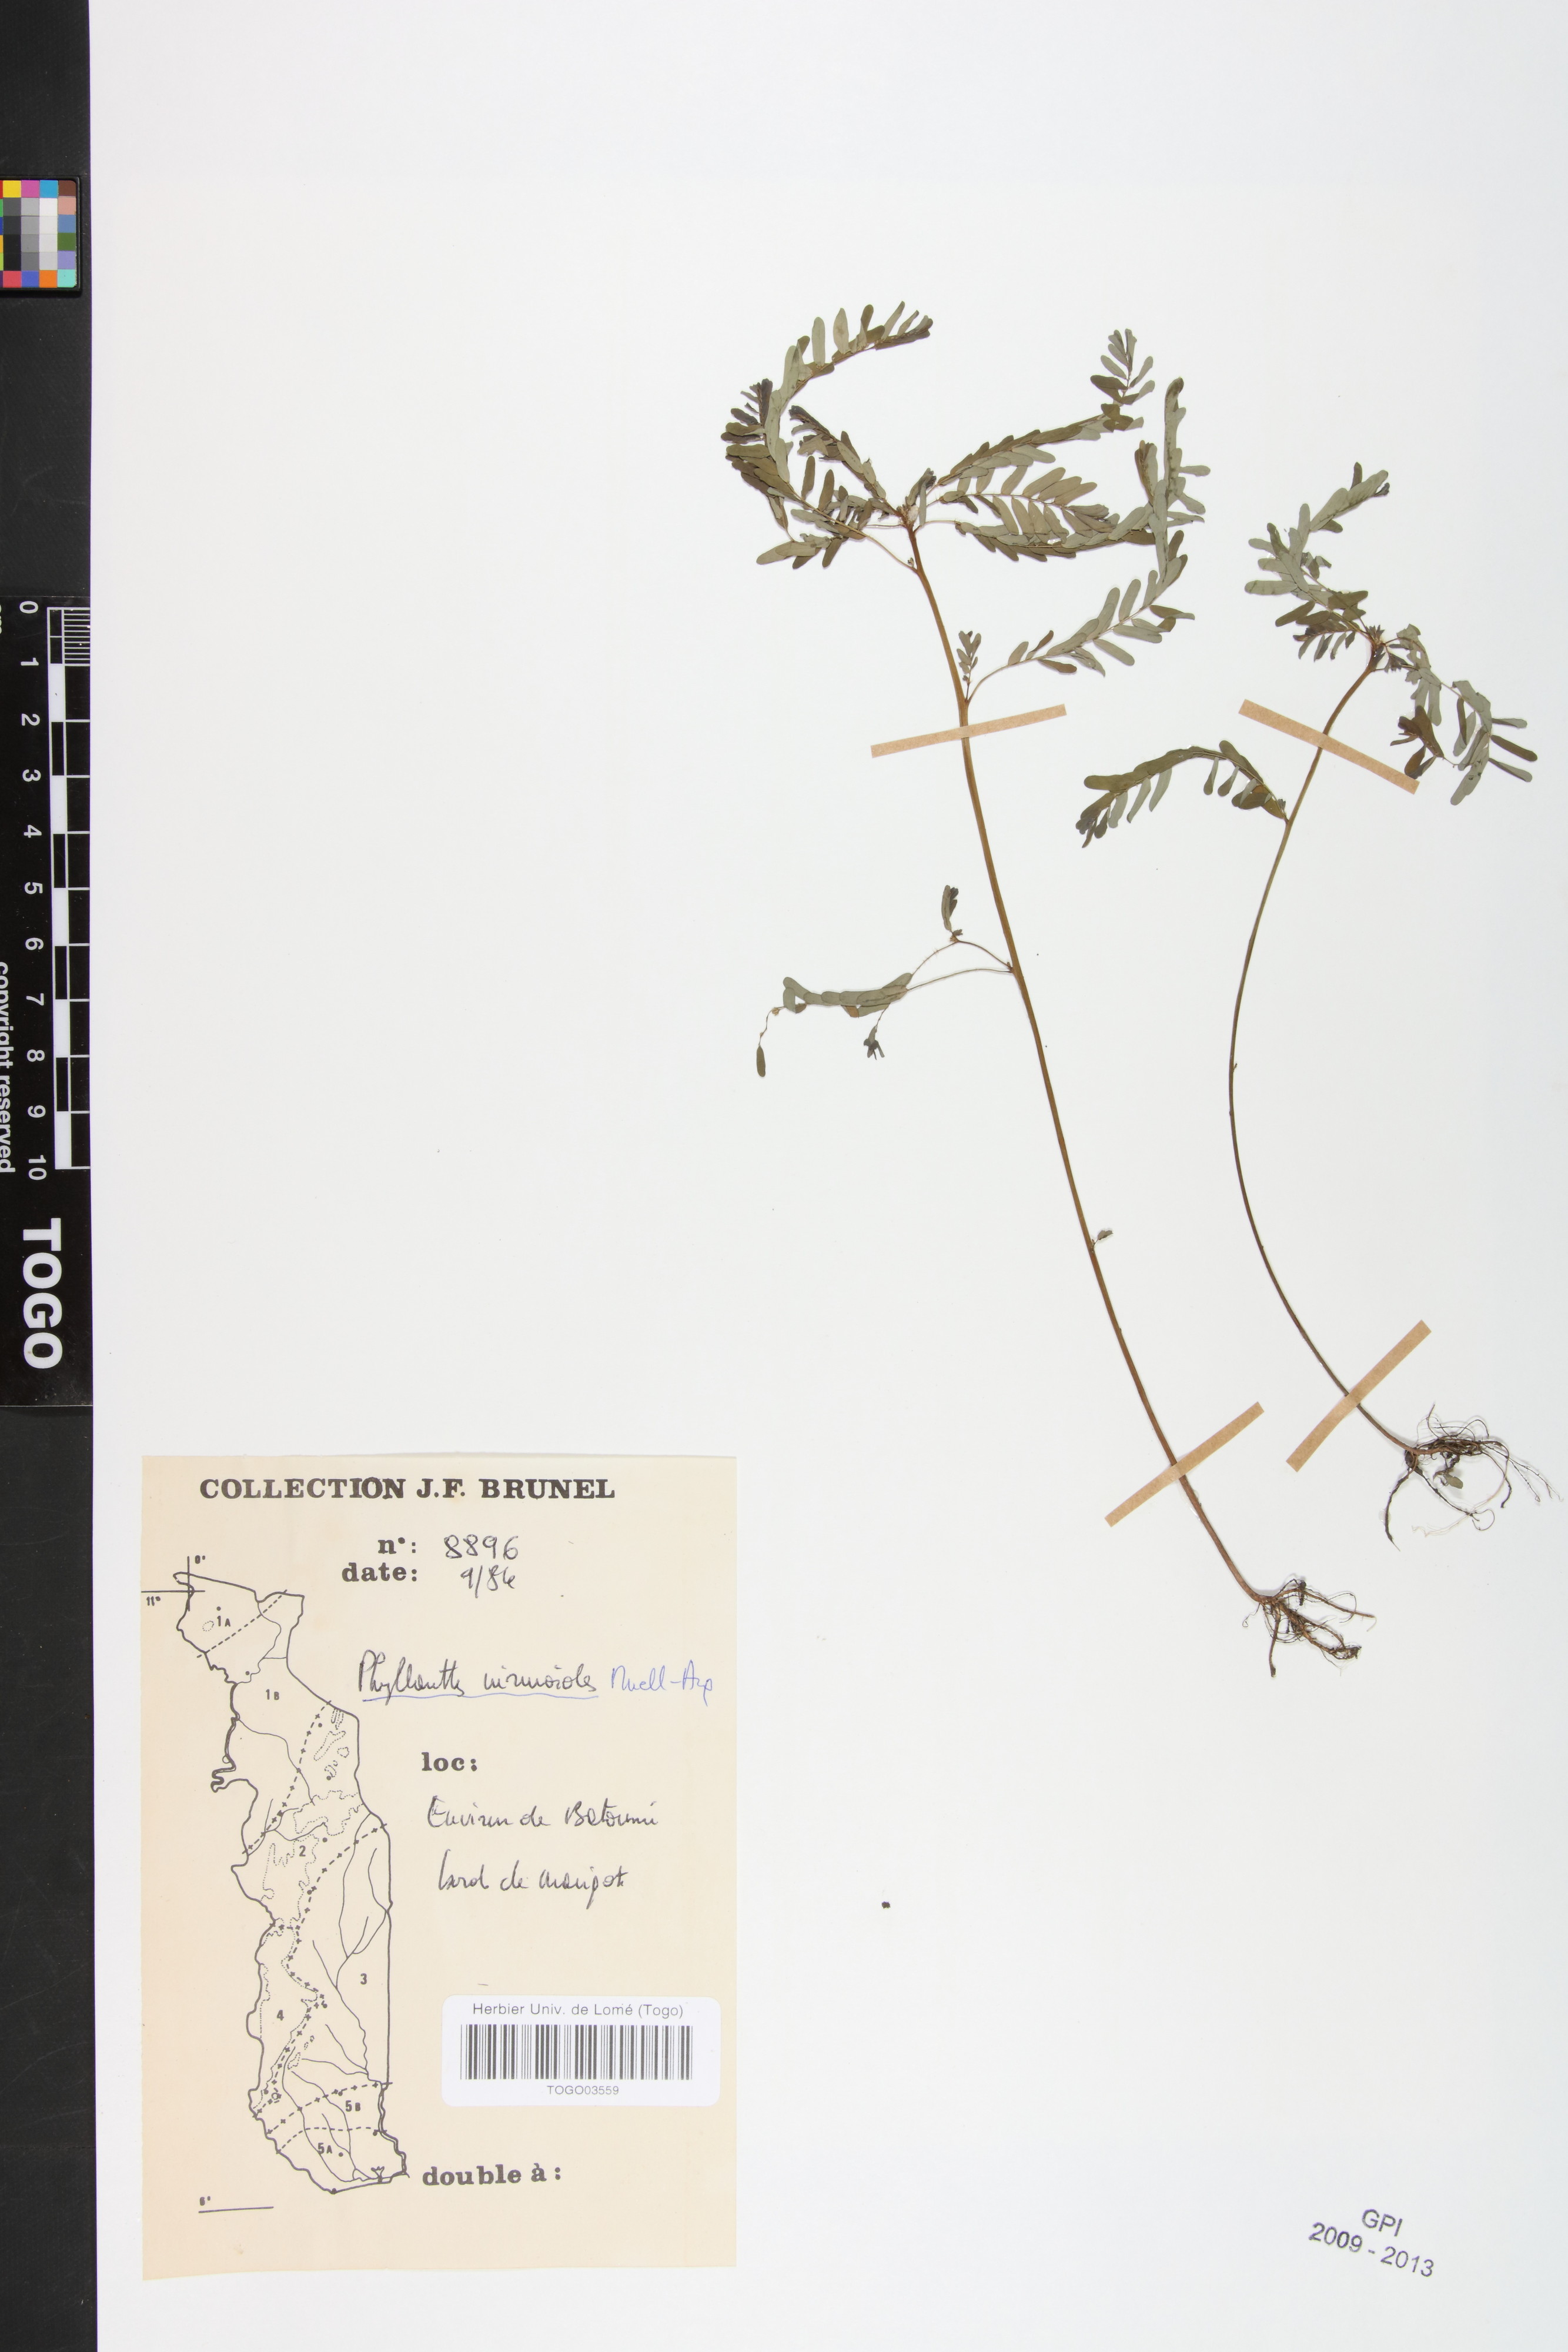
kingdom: Plantae
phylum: Tracheophyta
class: Magnoliopsida
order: Malpighiales
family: Phyllanthaceae
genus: Phyllanthus
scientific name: Phyllanthus niruroides
